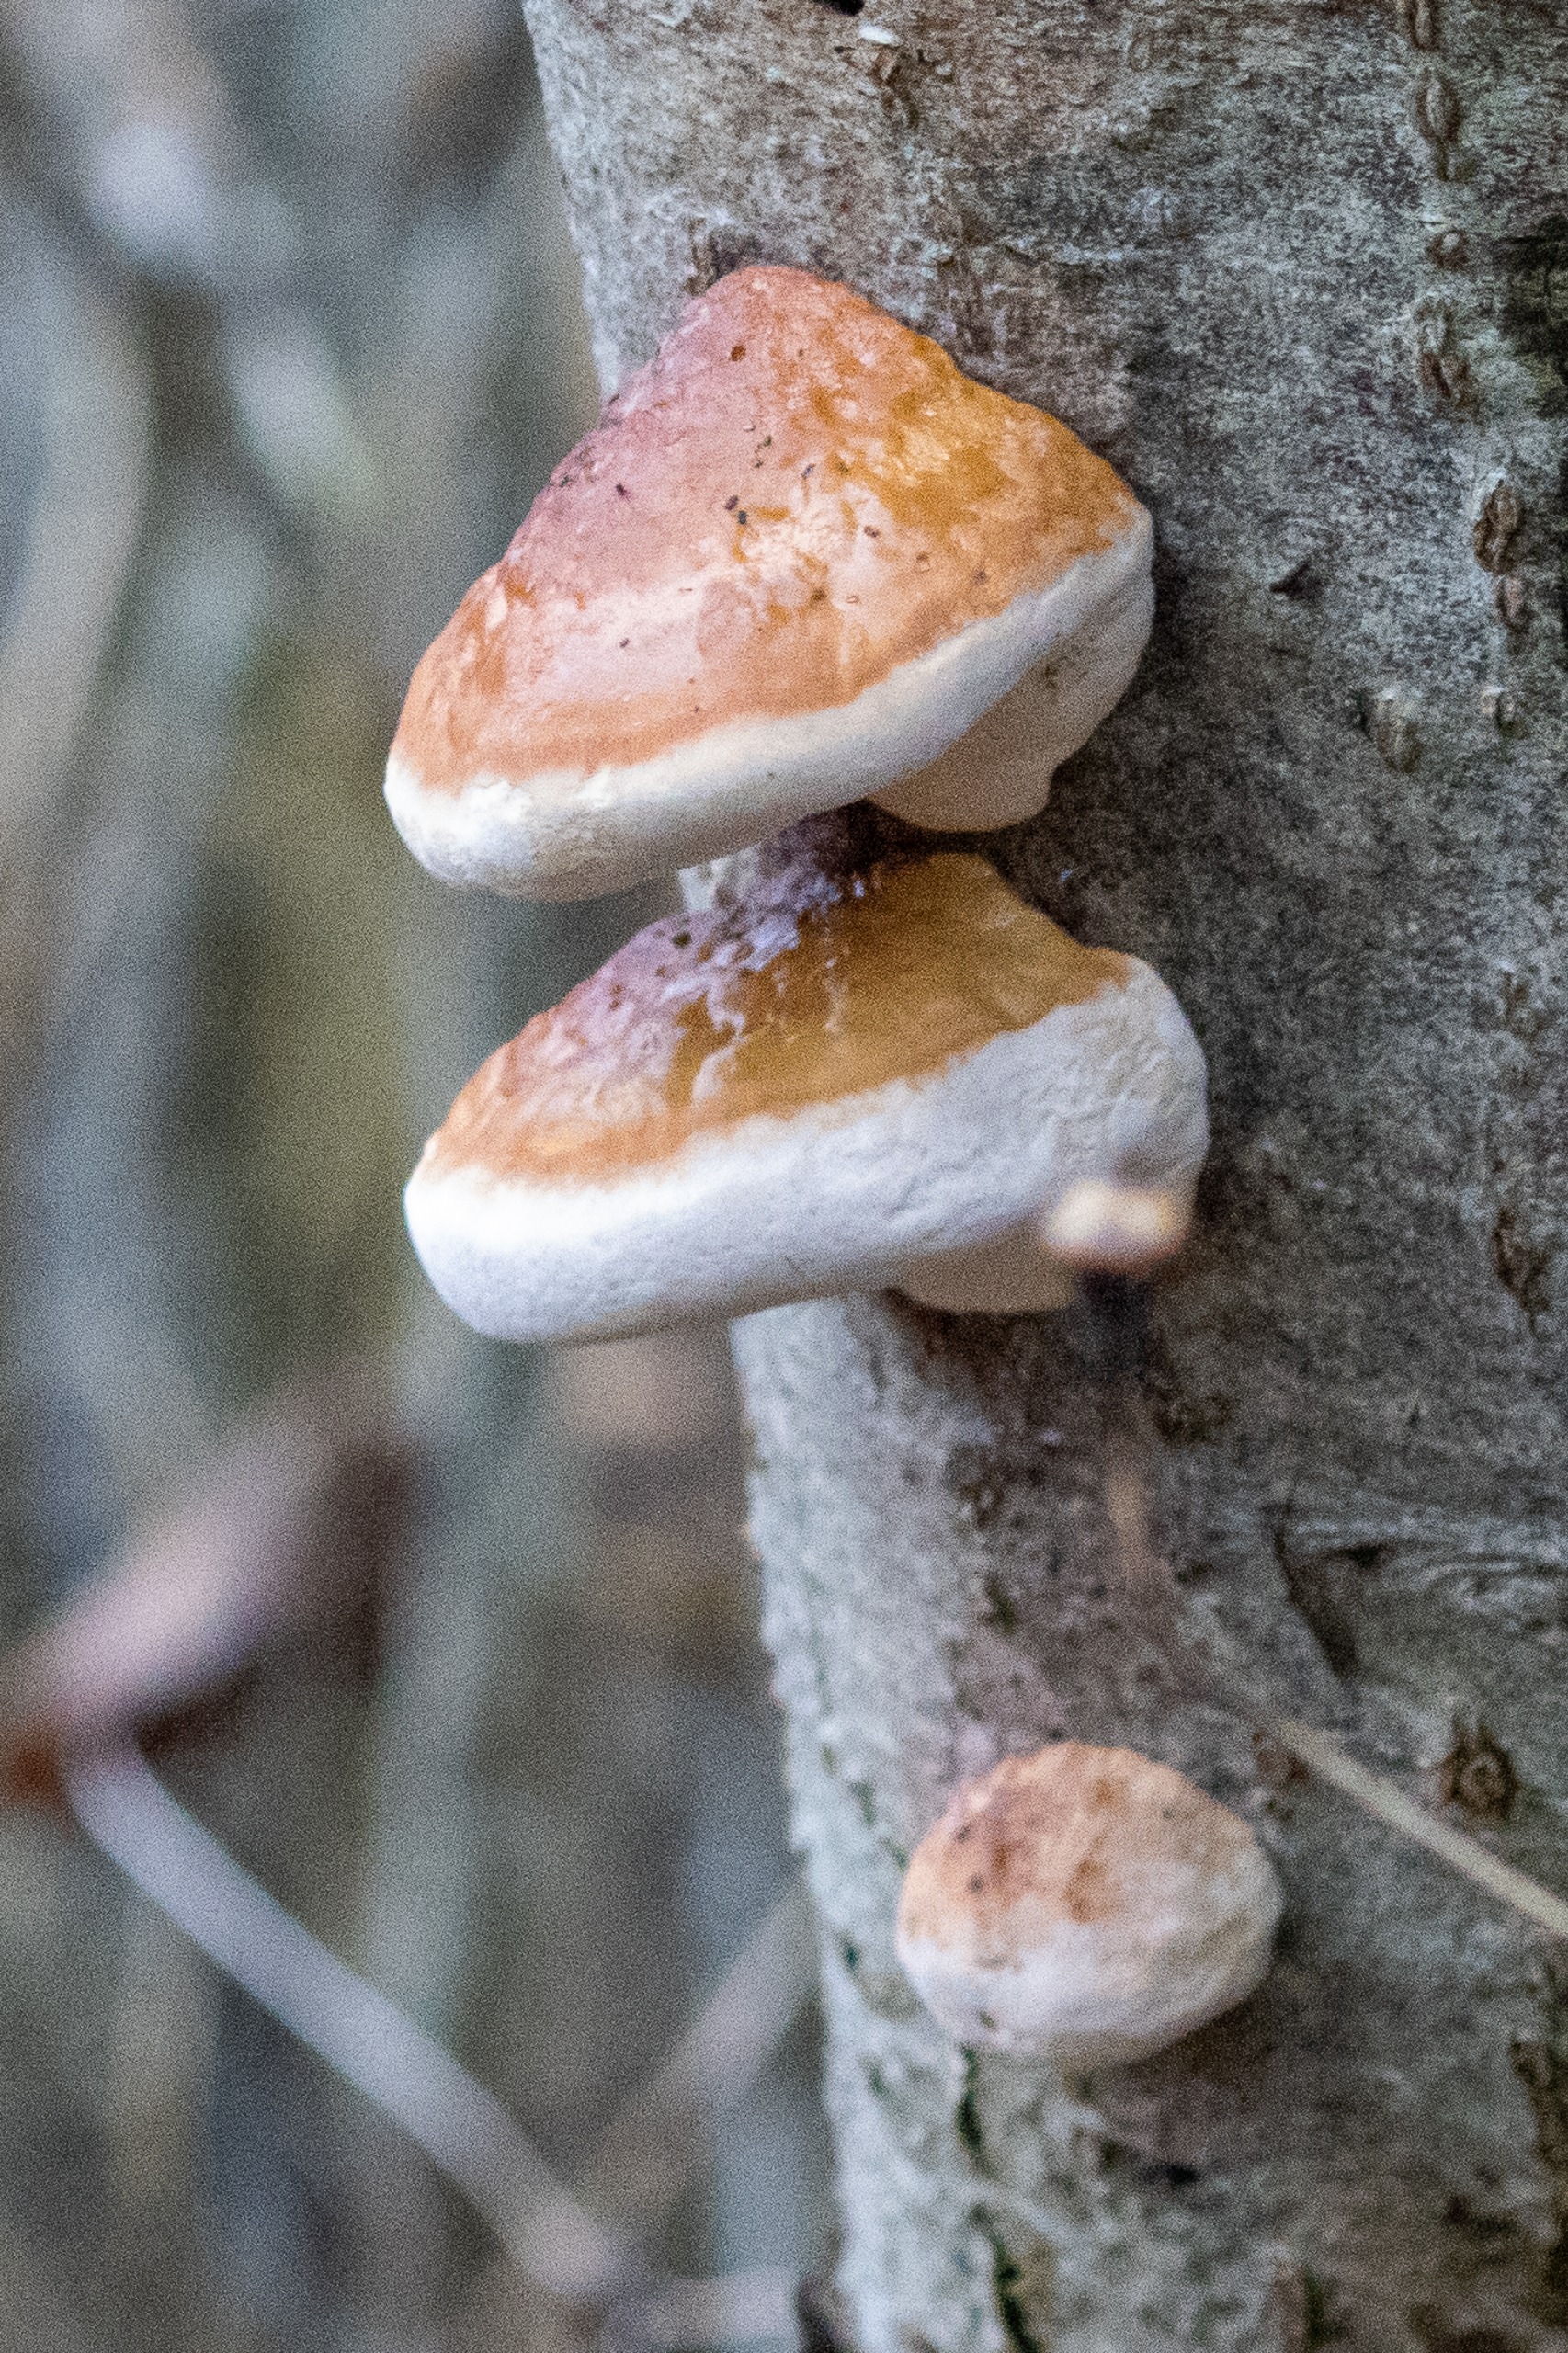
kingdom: Fungi
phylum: Basidiomycota
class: Agaricomycetes
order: Polyporales
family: Fomitopsidaceae
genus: Fomitopsis
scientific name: Fomitopsis pinicola
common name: Randbæltet hovporesvamp
